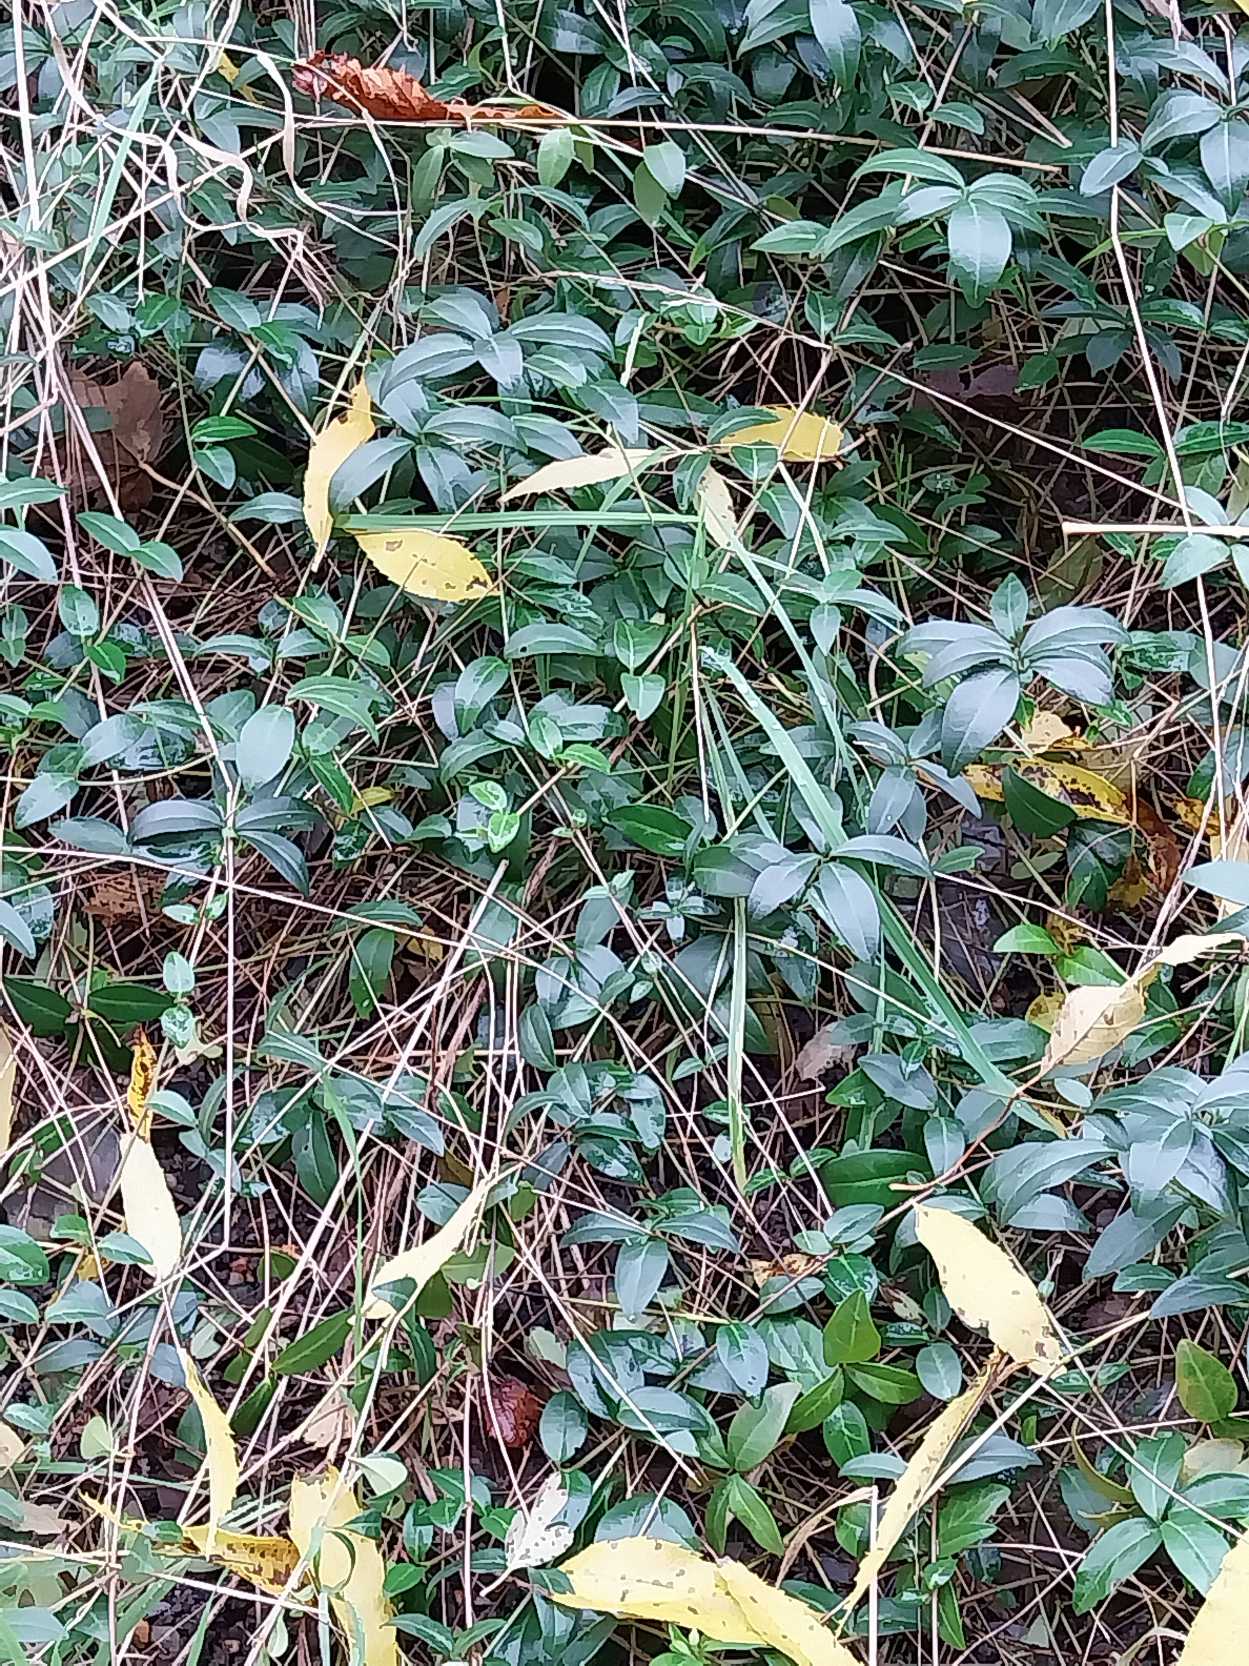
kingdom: Plantae
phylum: Tracheophyta
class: Magnoliopsida
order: Gentianales
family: Apocynaceae
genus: Vinca
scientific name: Vinca minor
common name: Liden singrøn
